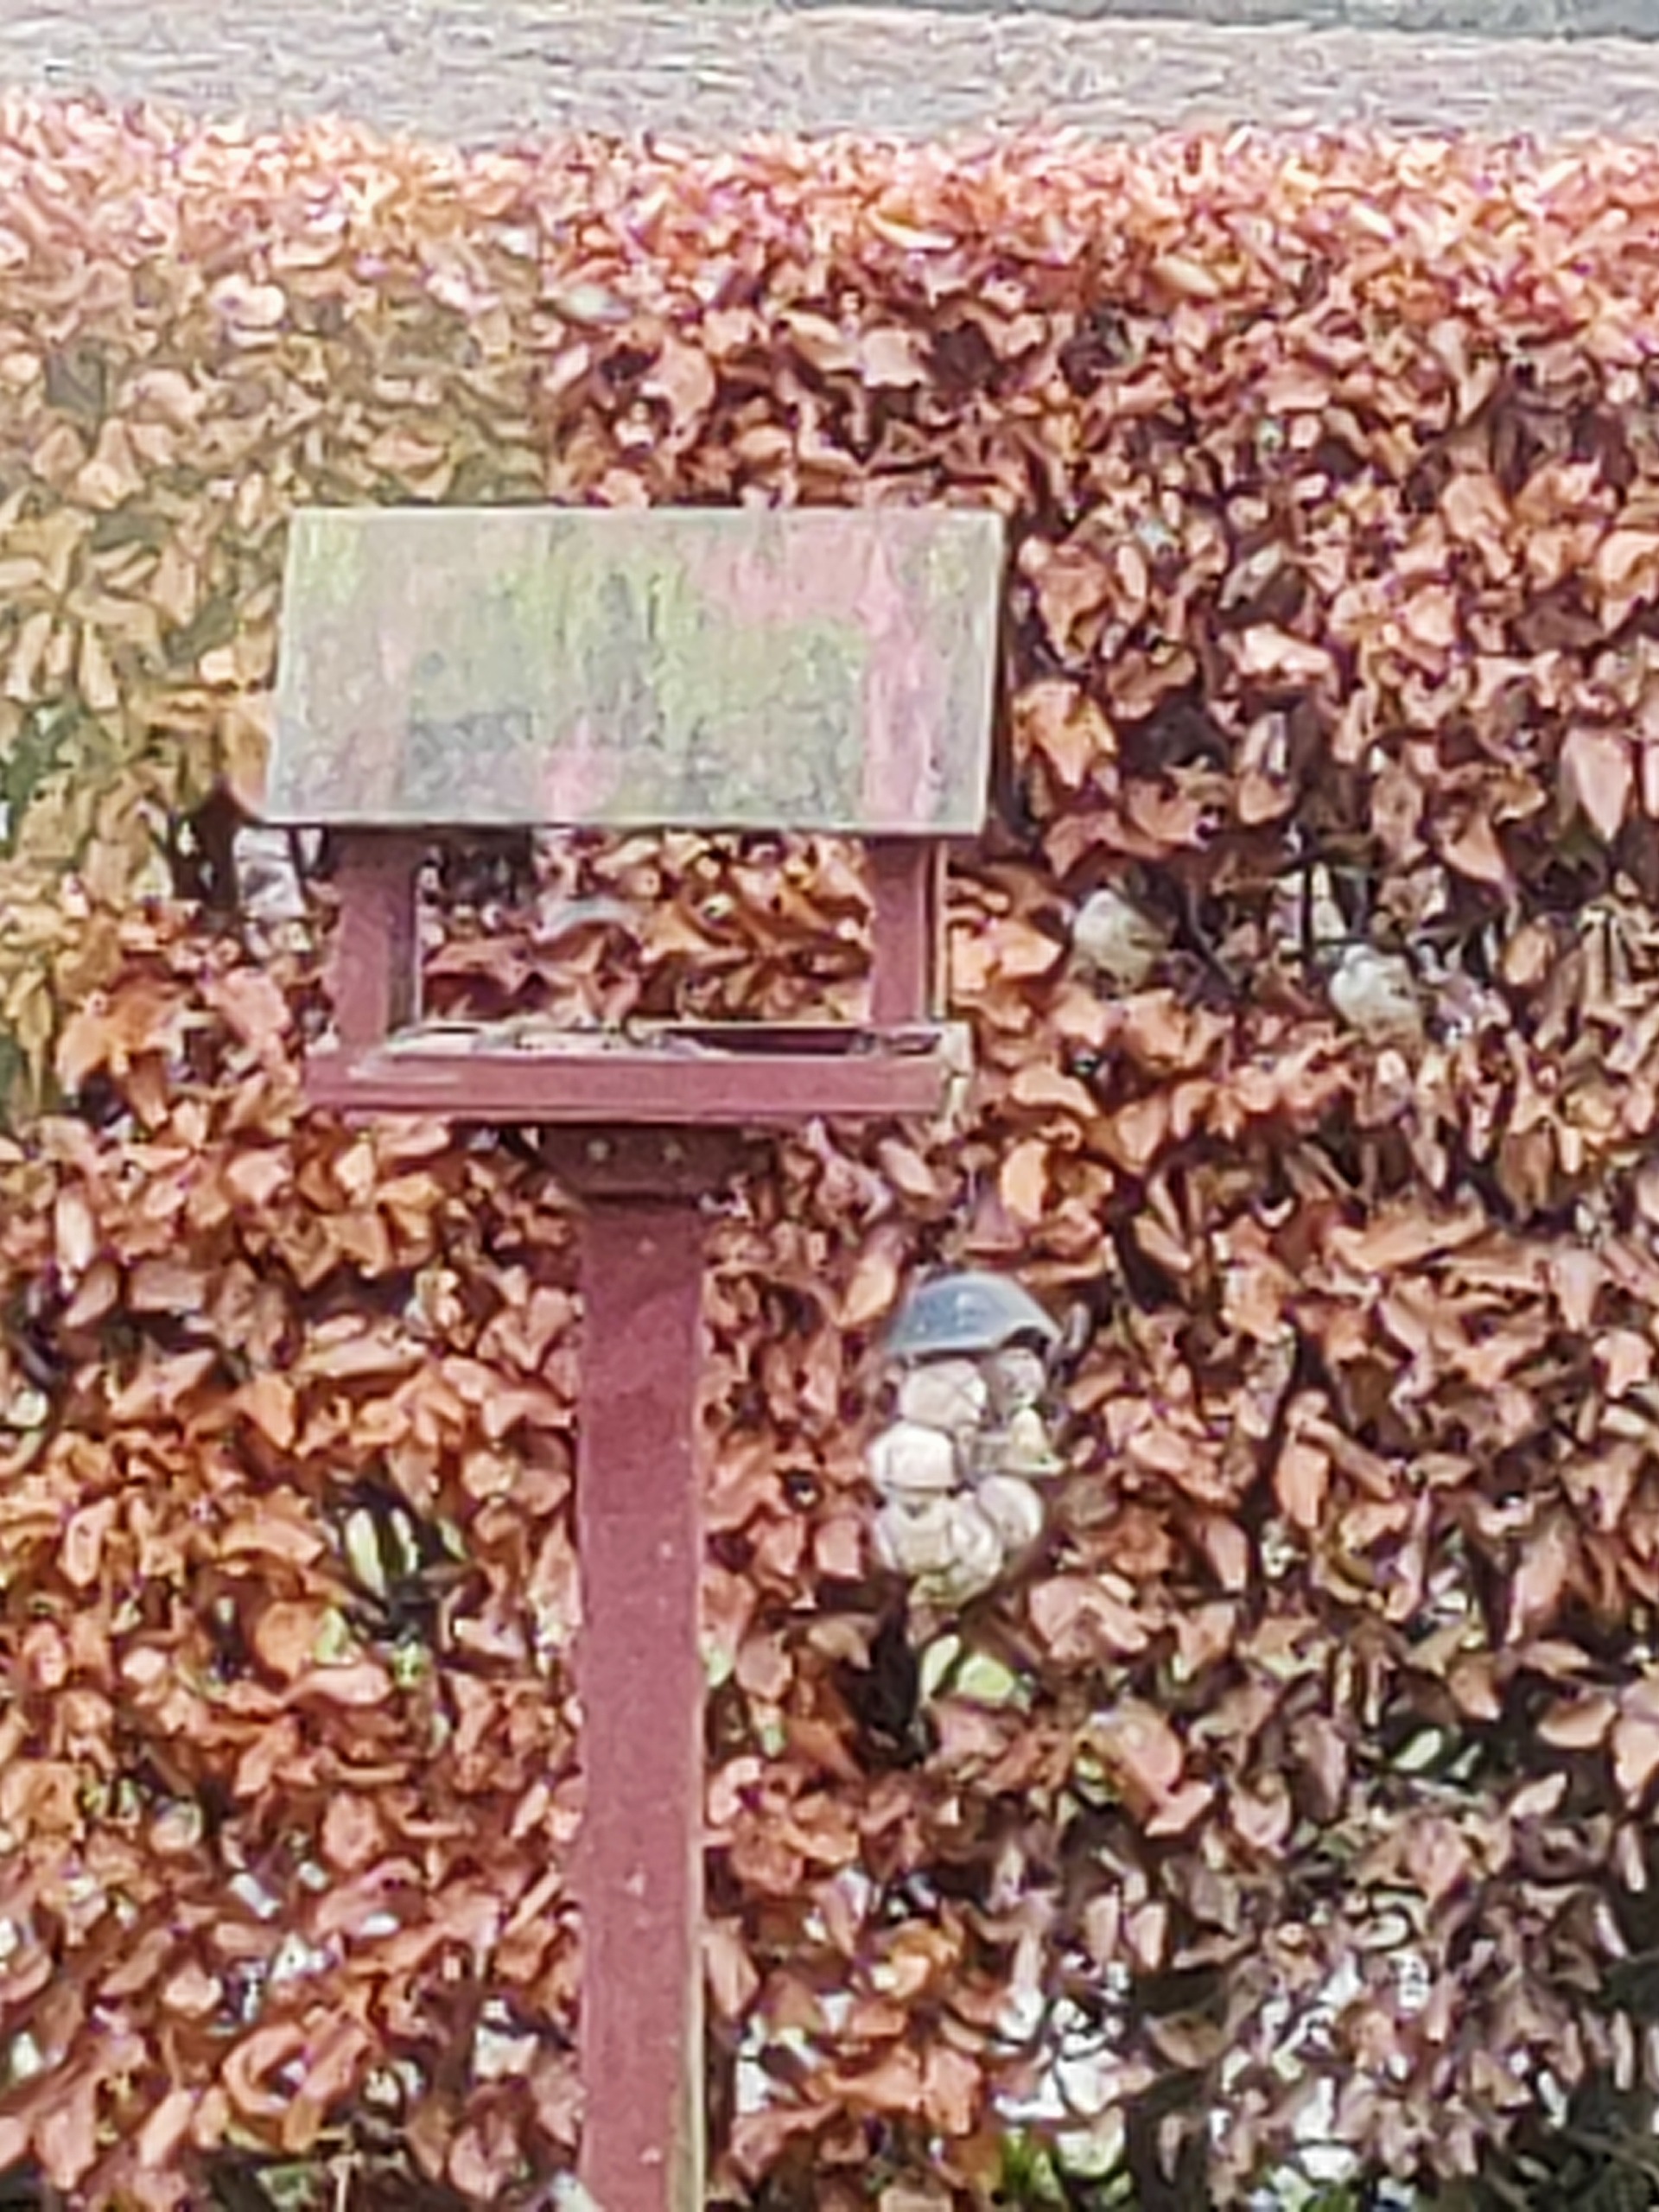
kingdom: Animalia
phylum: Chordata
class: Aves
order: Passeriformes
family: Passeridae
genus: Passer
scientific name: Passer domesticus
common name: Gråspurv
